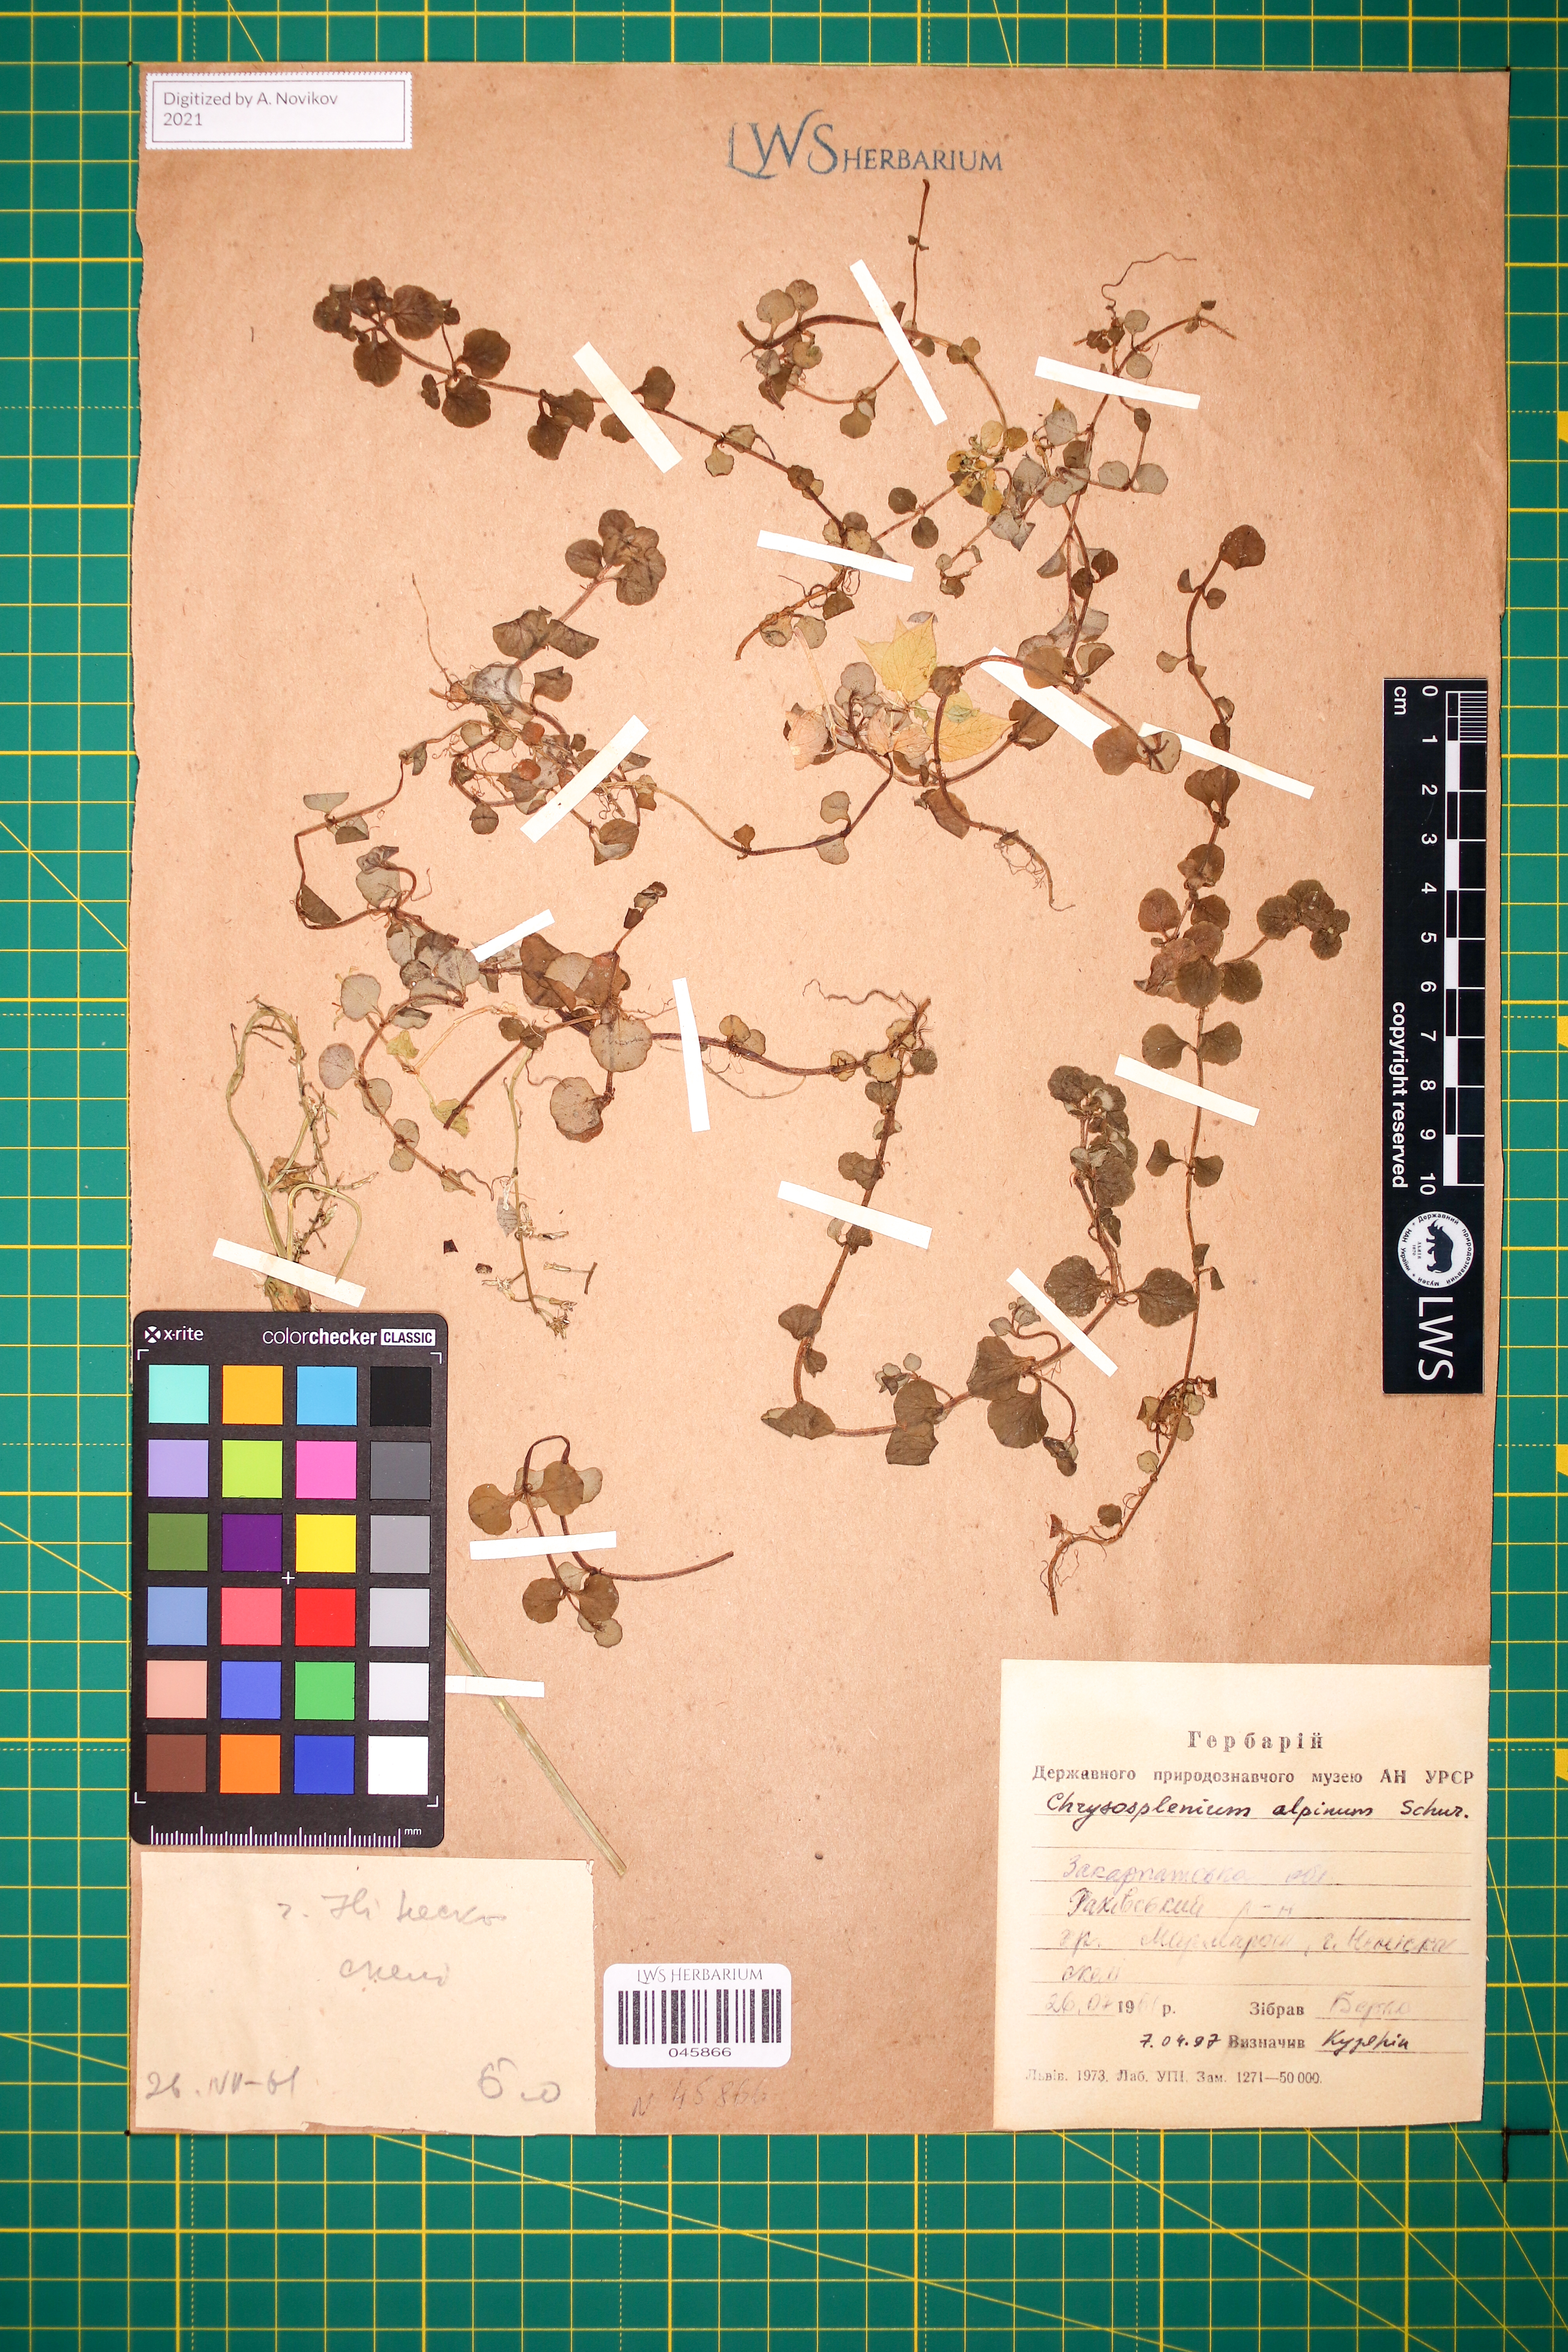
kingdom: Plantae
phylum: Tracheophyta
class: Magnoliopsida
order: Saxifragales
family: Saxifragaceae
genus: Chrysosplenium
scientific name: Chrysosplenium alpinum
